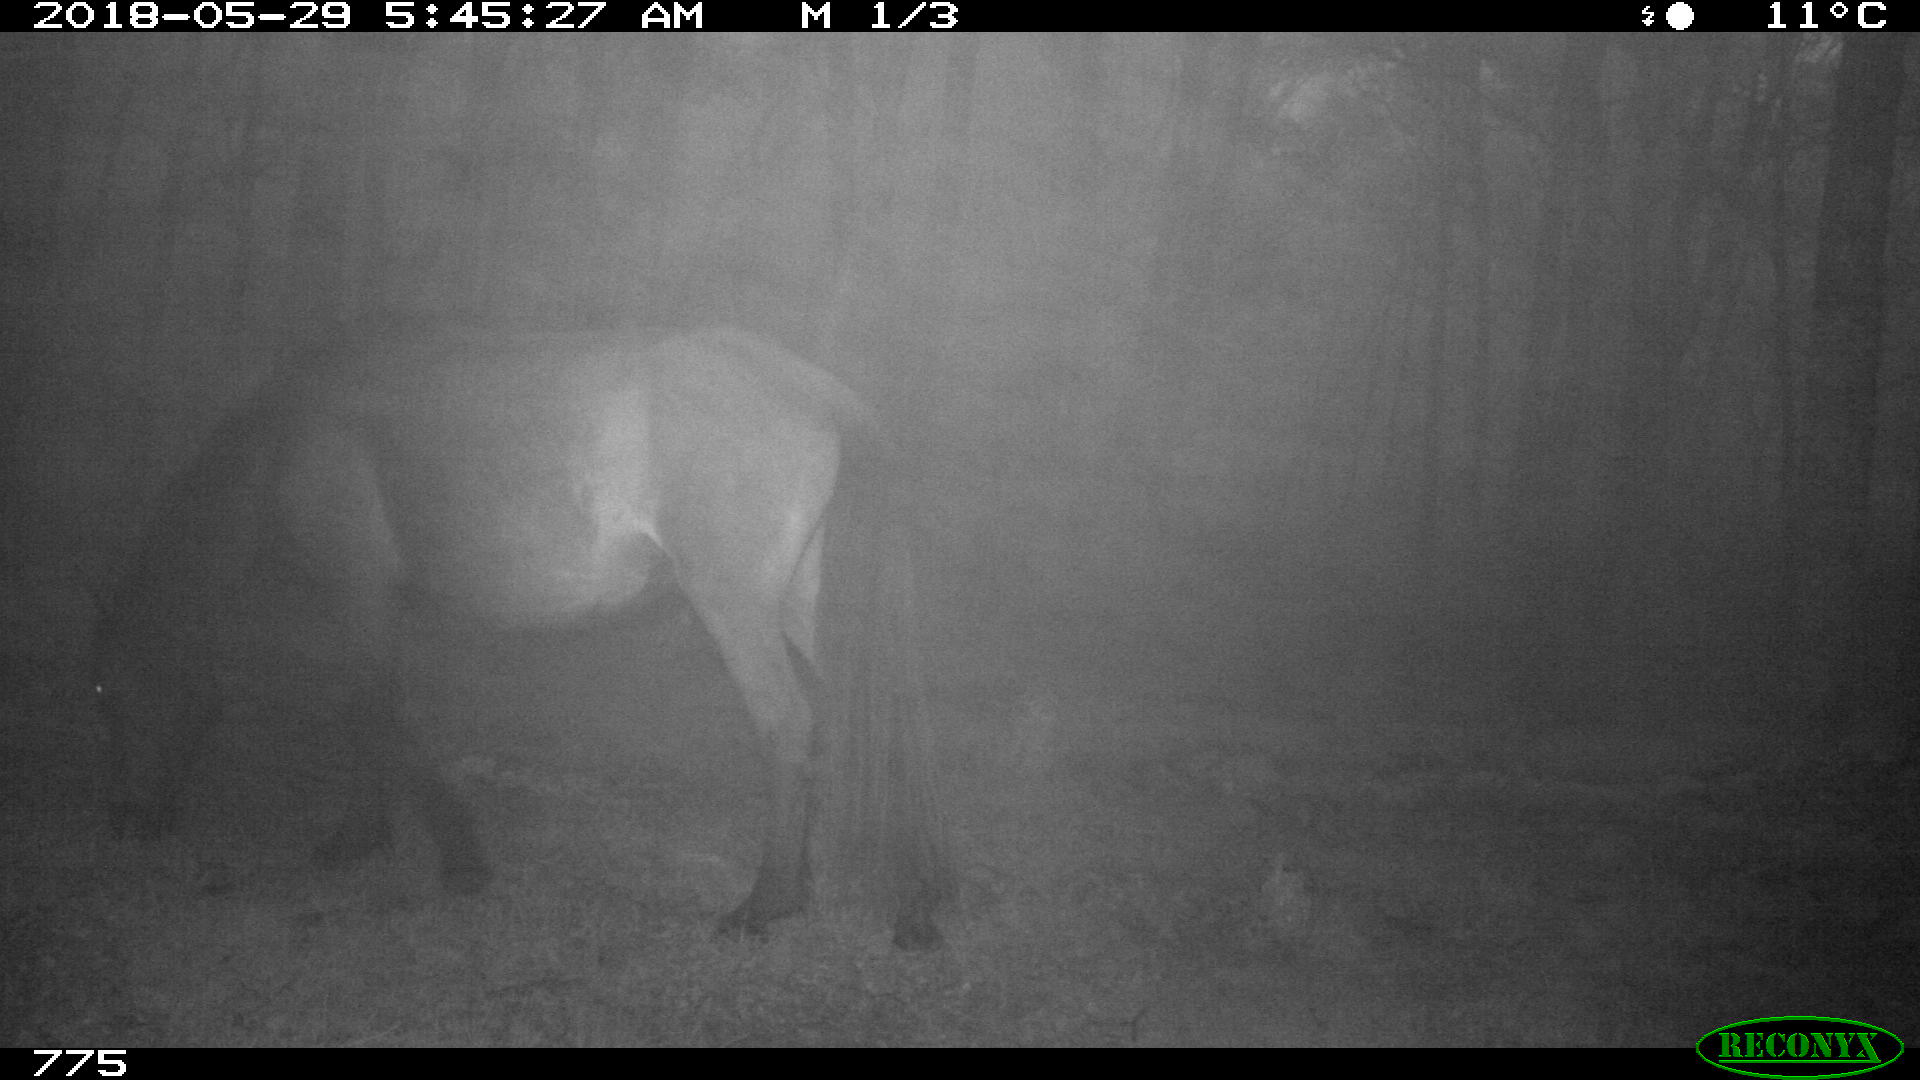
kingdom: Animalia
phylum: Chordata
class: Mammalia
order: Perissodactyla
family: Equidae
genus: Equus
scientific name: Equus caballus
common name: Horse
